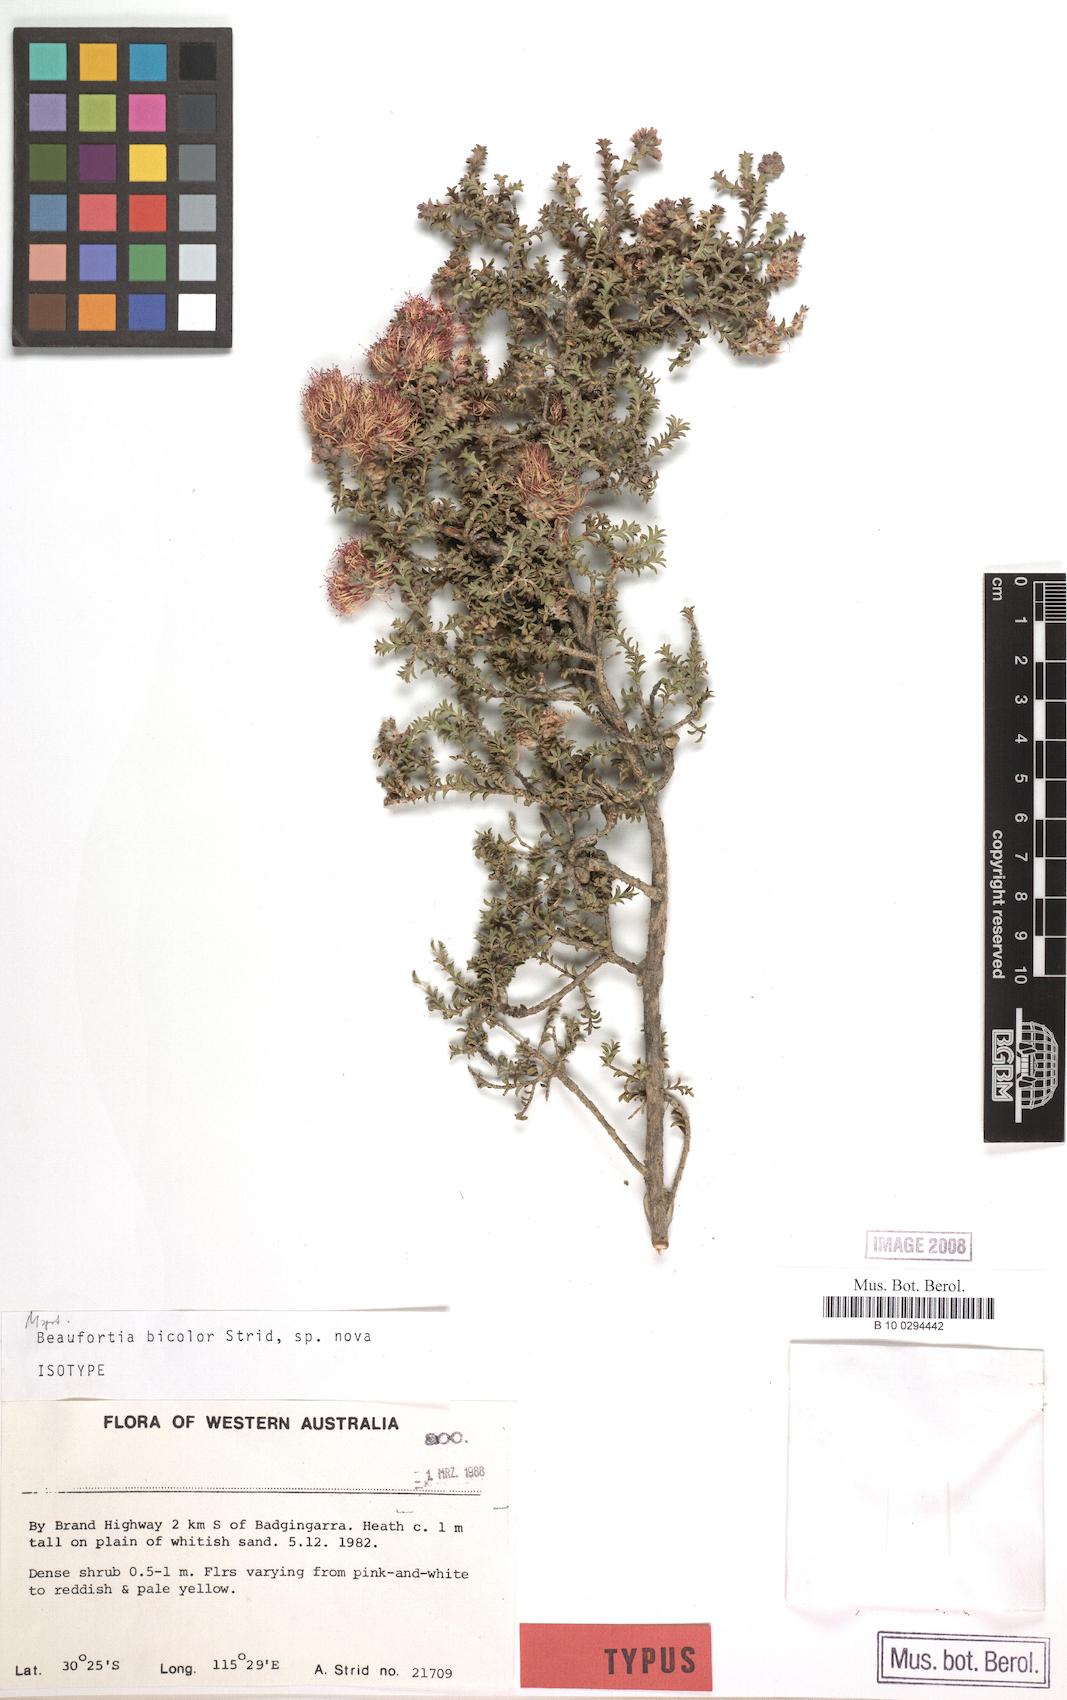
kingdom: Plantae
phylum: Tracheophyta
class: Magnoliopsida
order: Myrtales
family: Myrtaceae
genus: Melaleuca
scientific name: Melaleuca variegata
